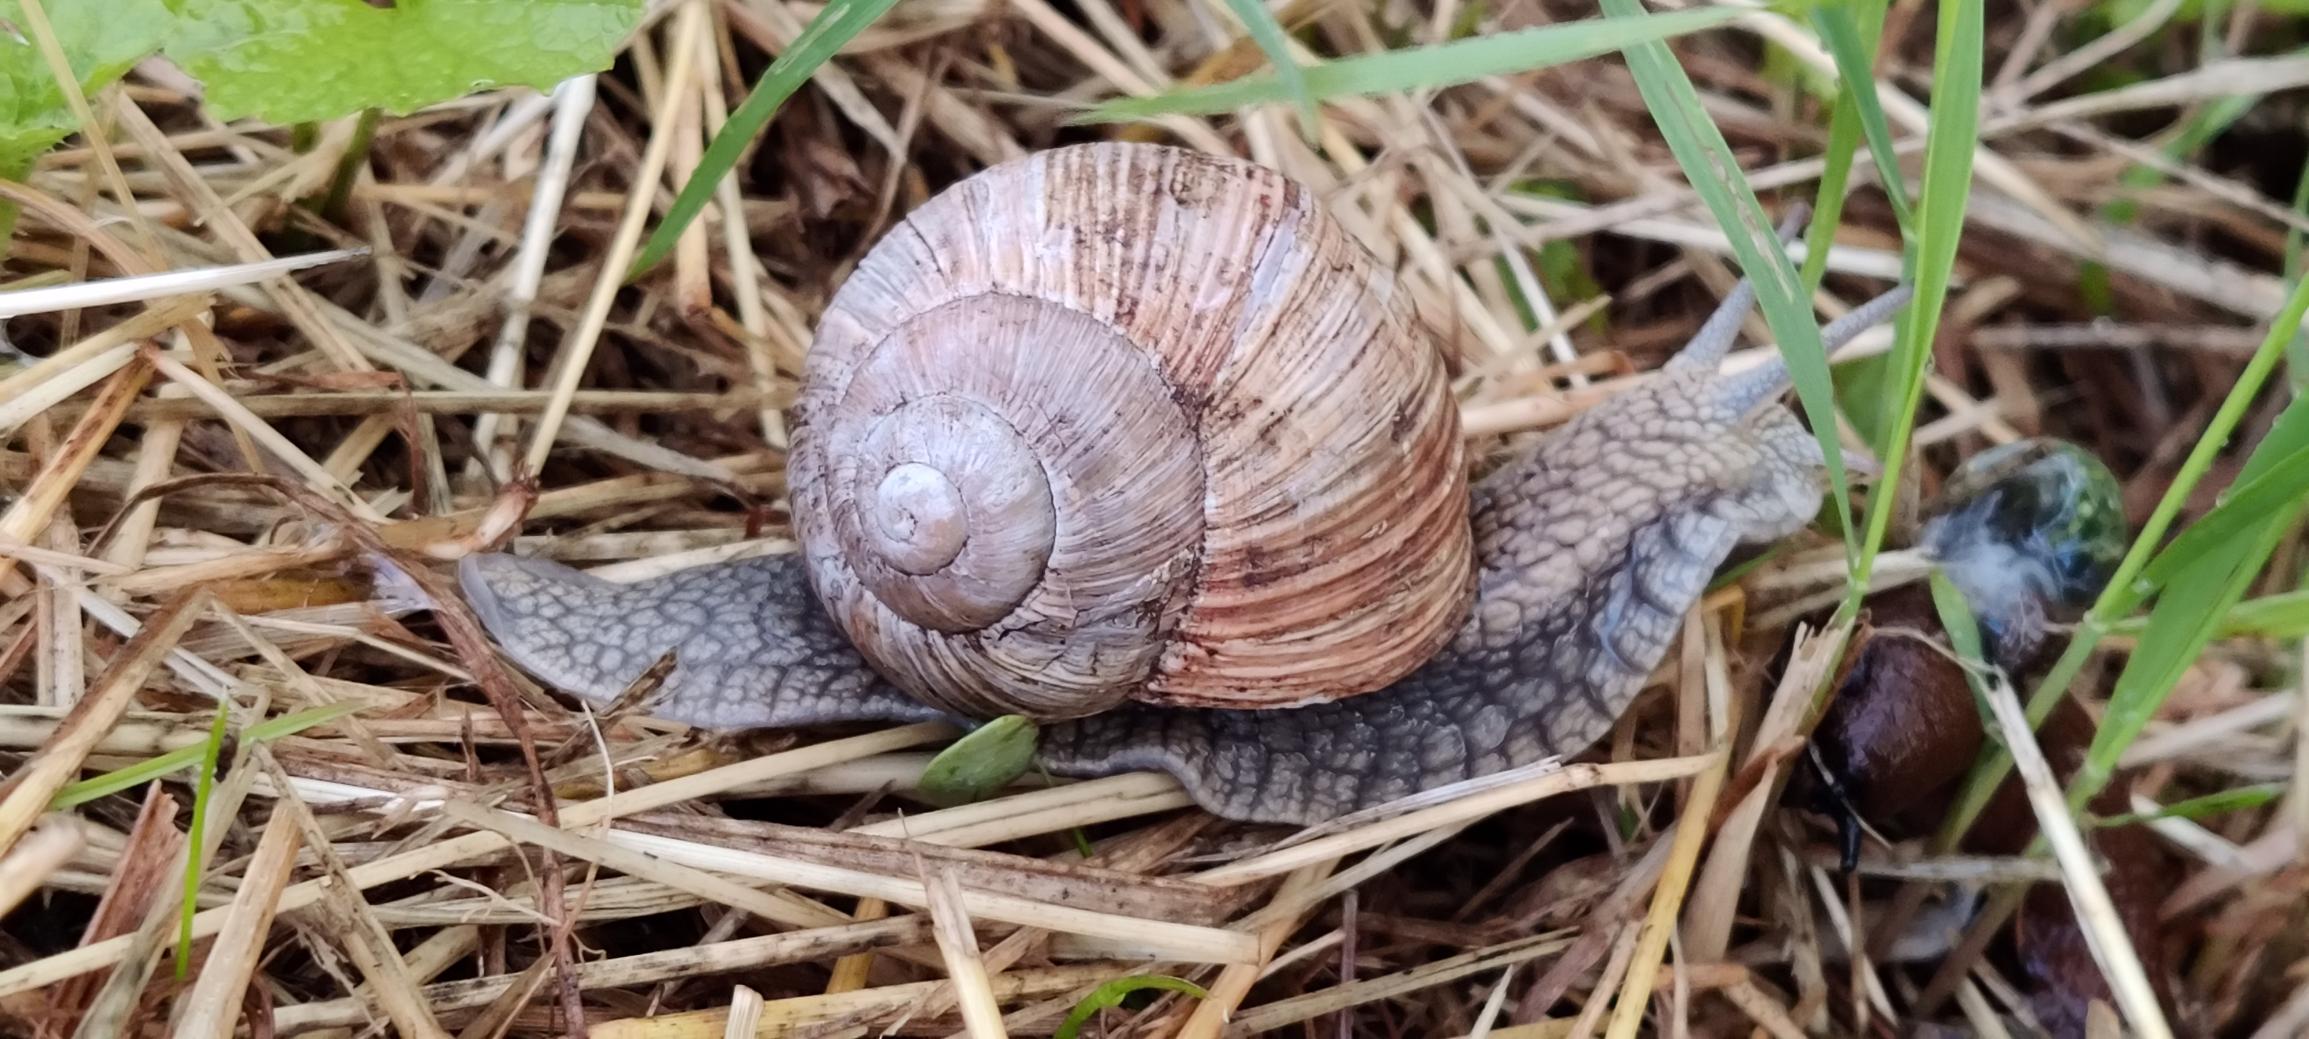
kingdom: Animalia
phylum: Mollusca
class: Gastropoda
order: Stylommatophora
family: Helicidae
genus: Helix
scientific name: Helix pomatia
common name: Vinbjergsnegl
